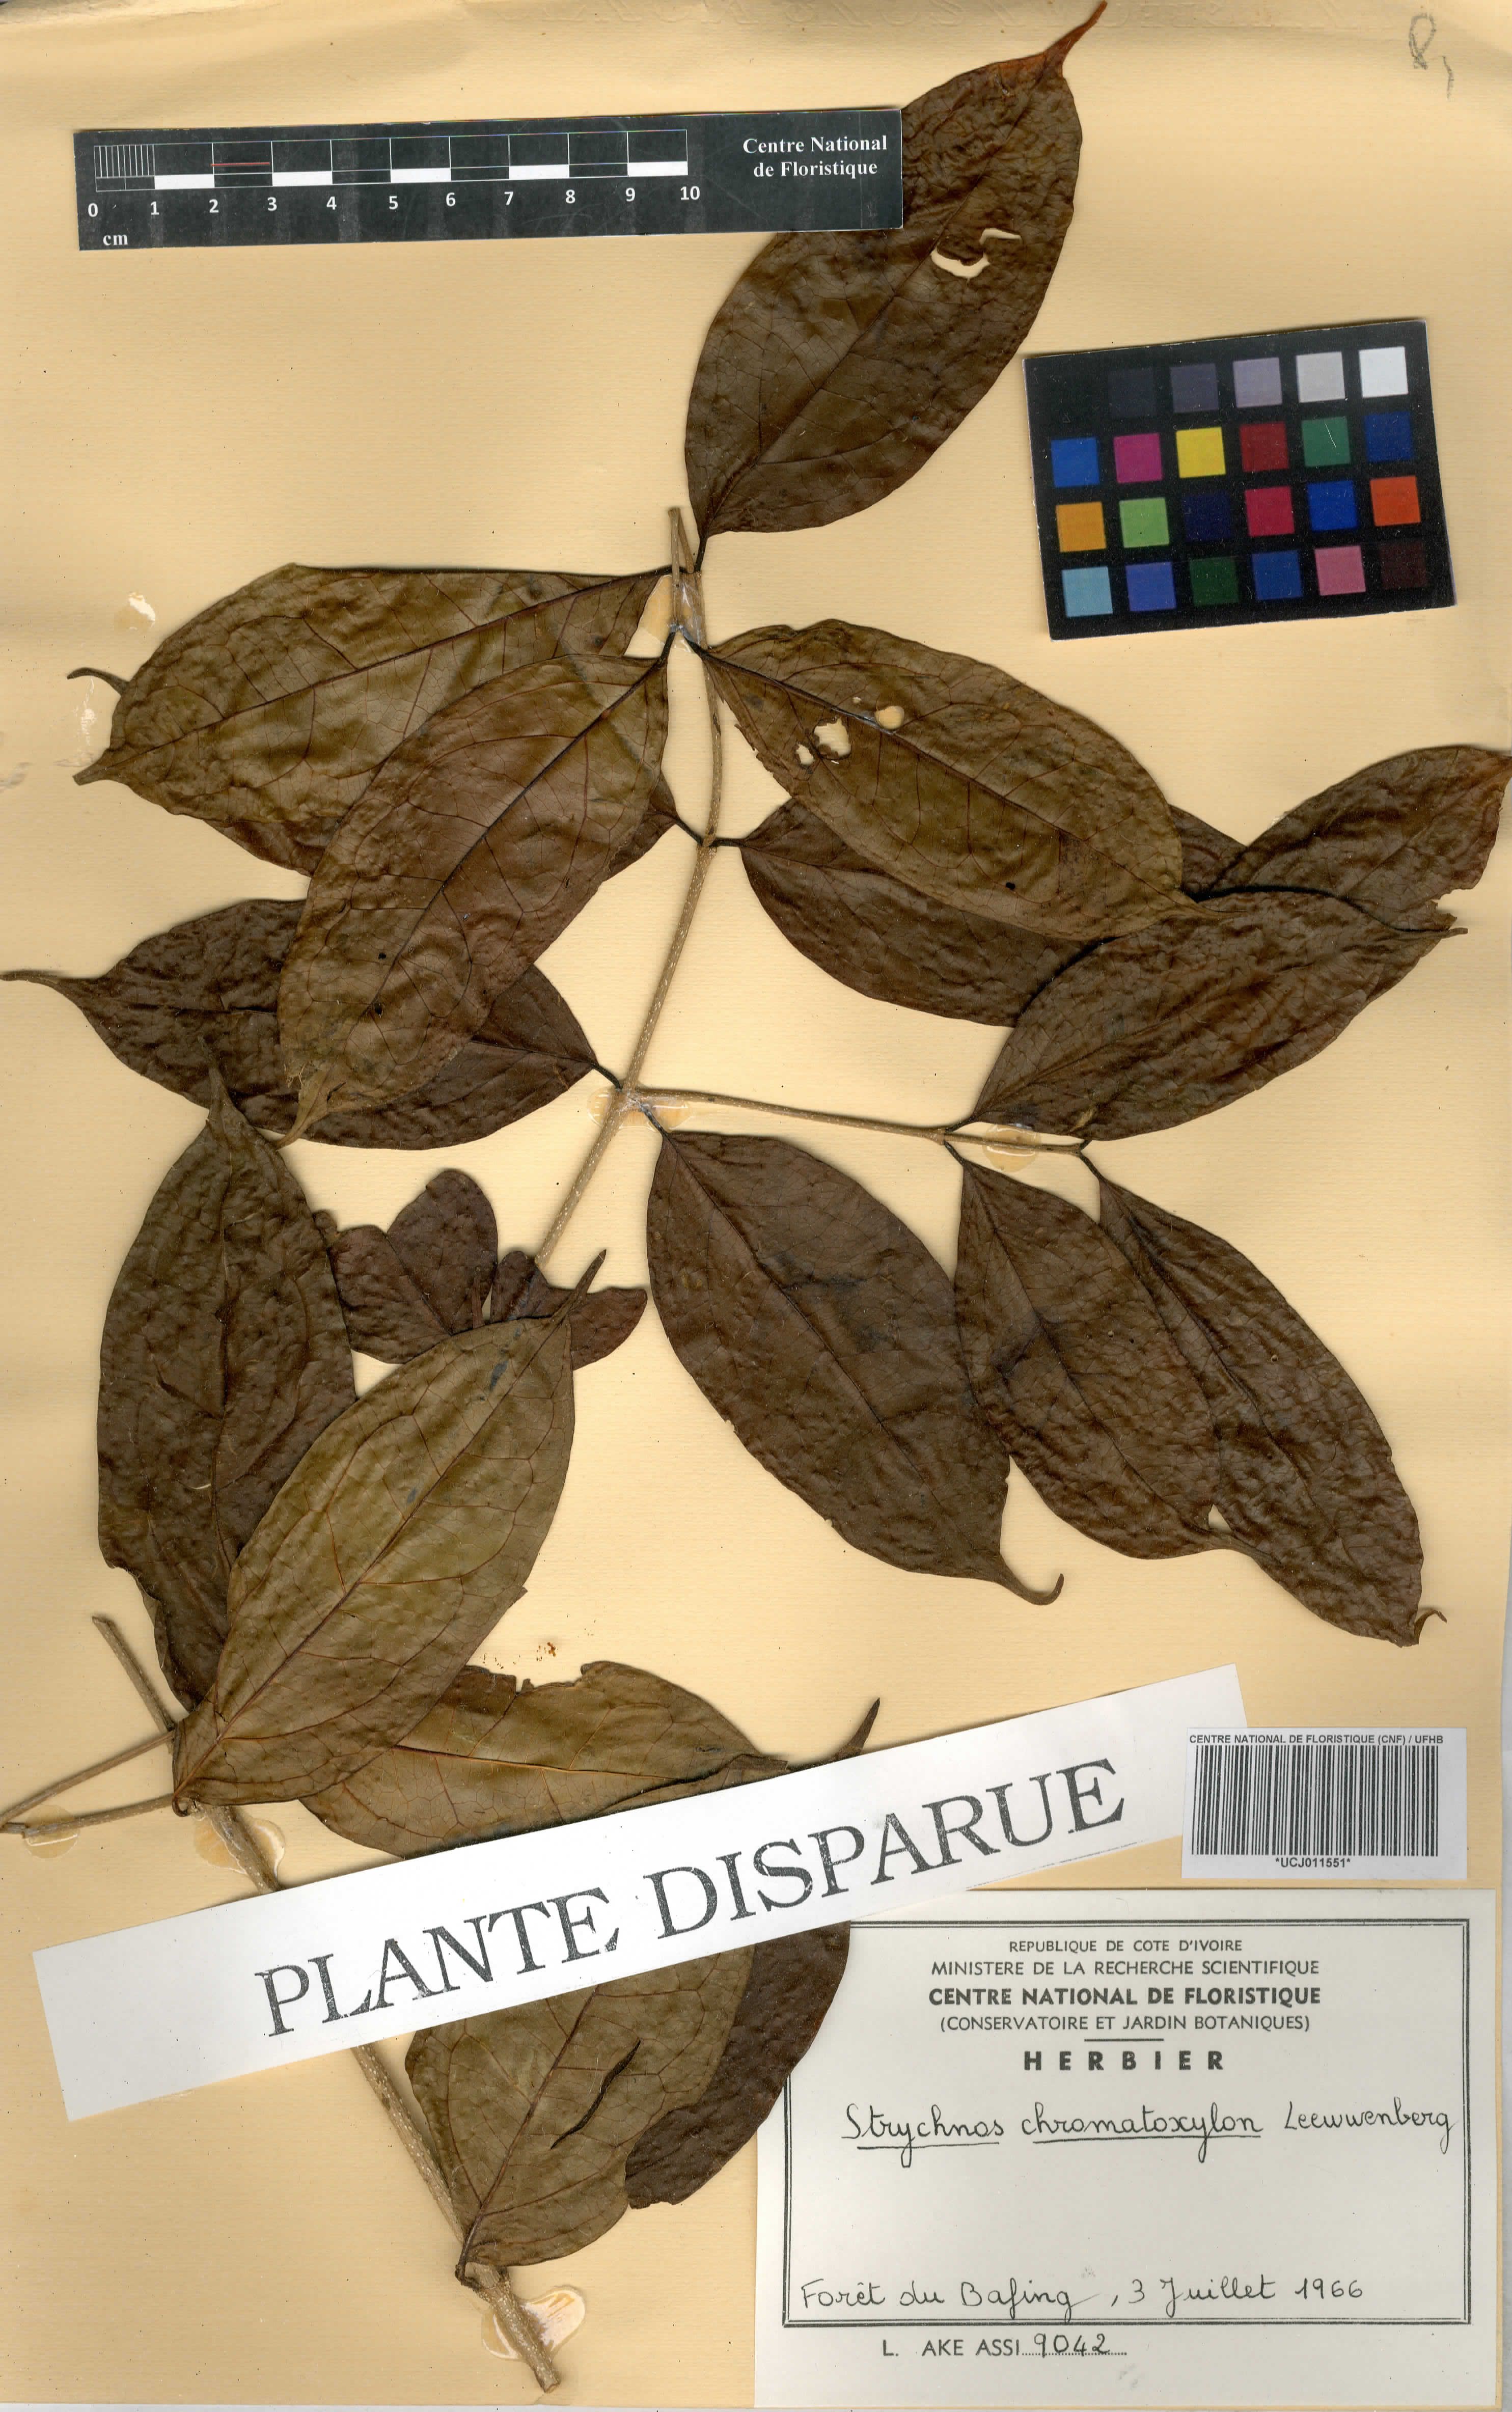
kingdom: Plantae
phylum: Tracheophyta
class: Magnoliopsida
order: Gentianales
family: Loganiaceae
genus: Strychnos
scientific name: Strychnos chromatoxylon
